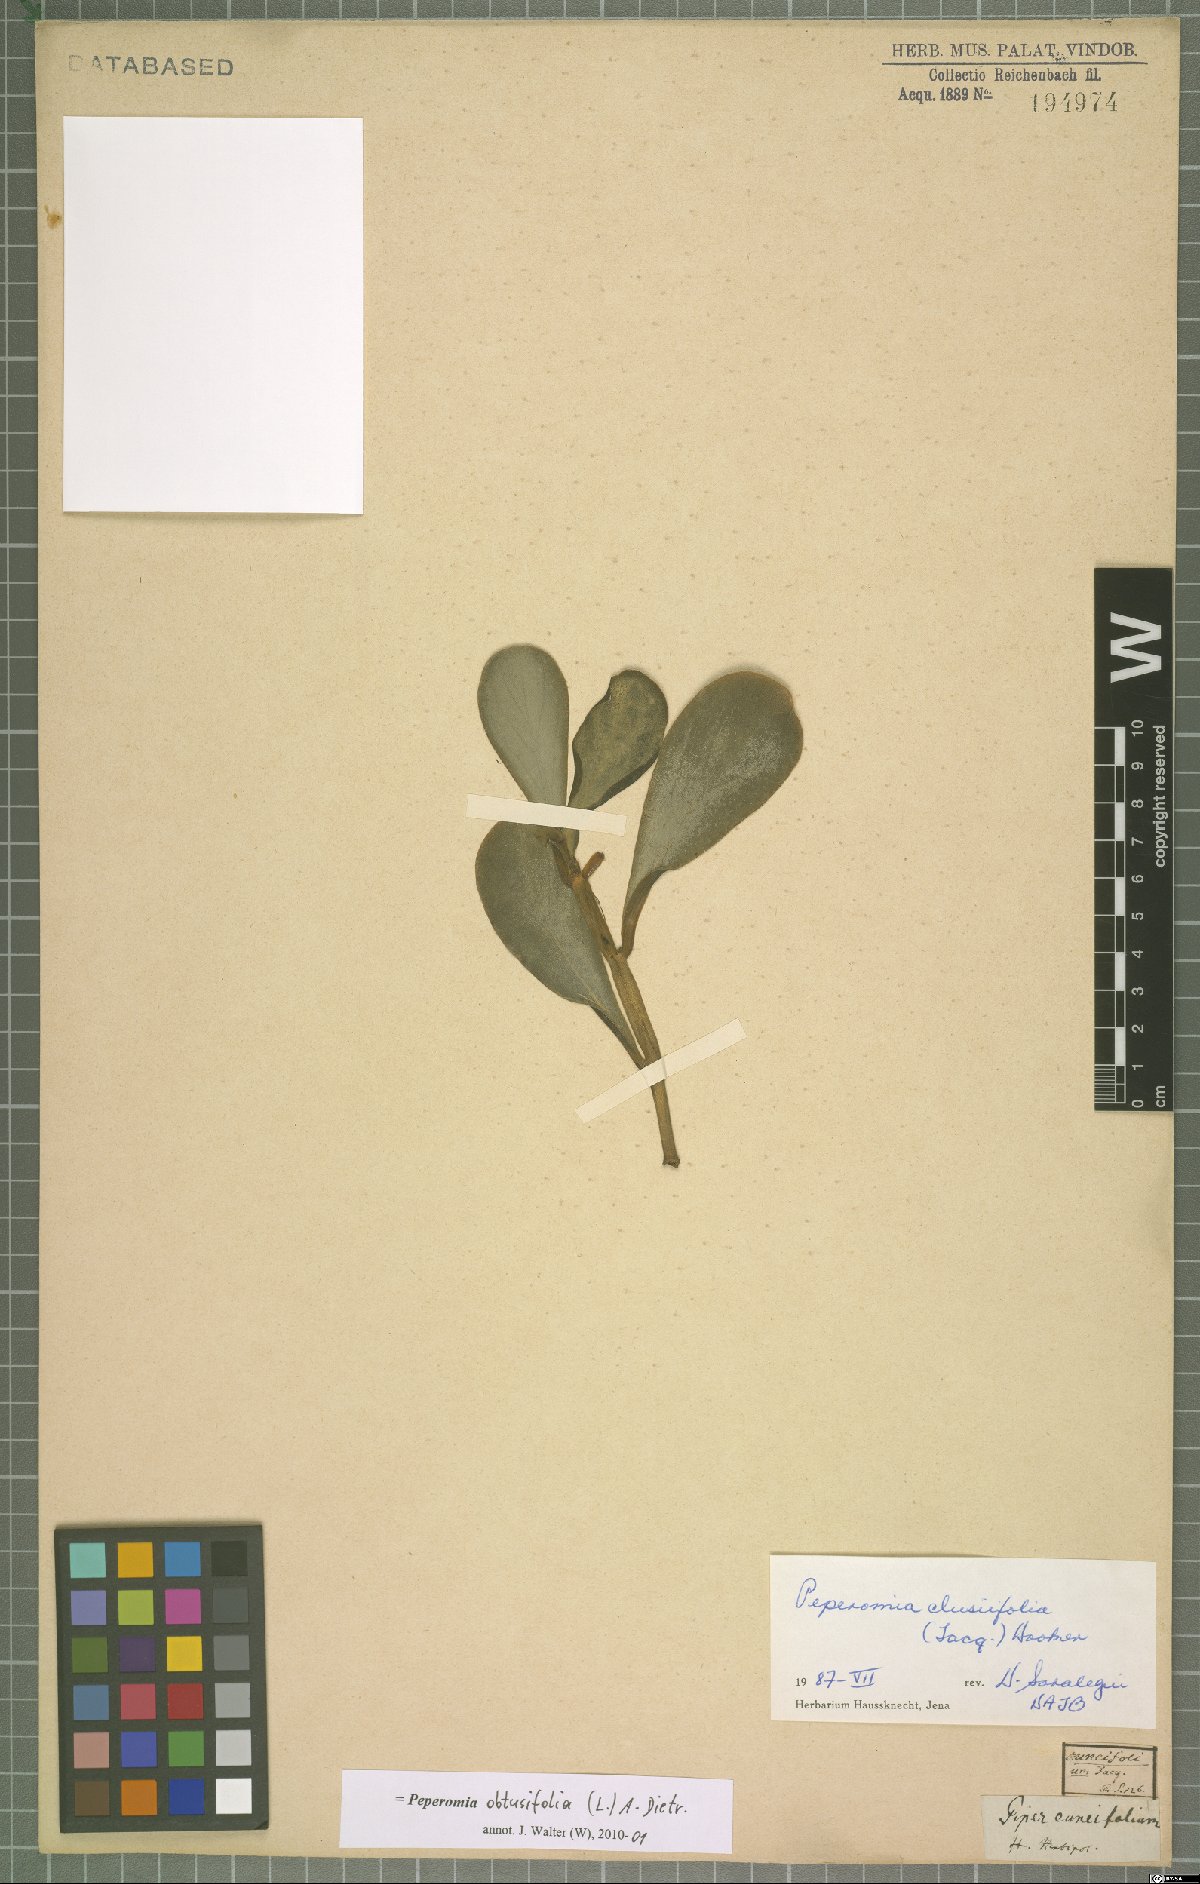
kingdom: Plantae
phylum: Tracheophyta
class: Magnoliopsida
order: Piperales
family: Piperaceae
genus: Peperomia
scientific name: Peperomia obtusifolia
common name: Baby rubberplant
